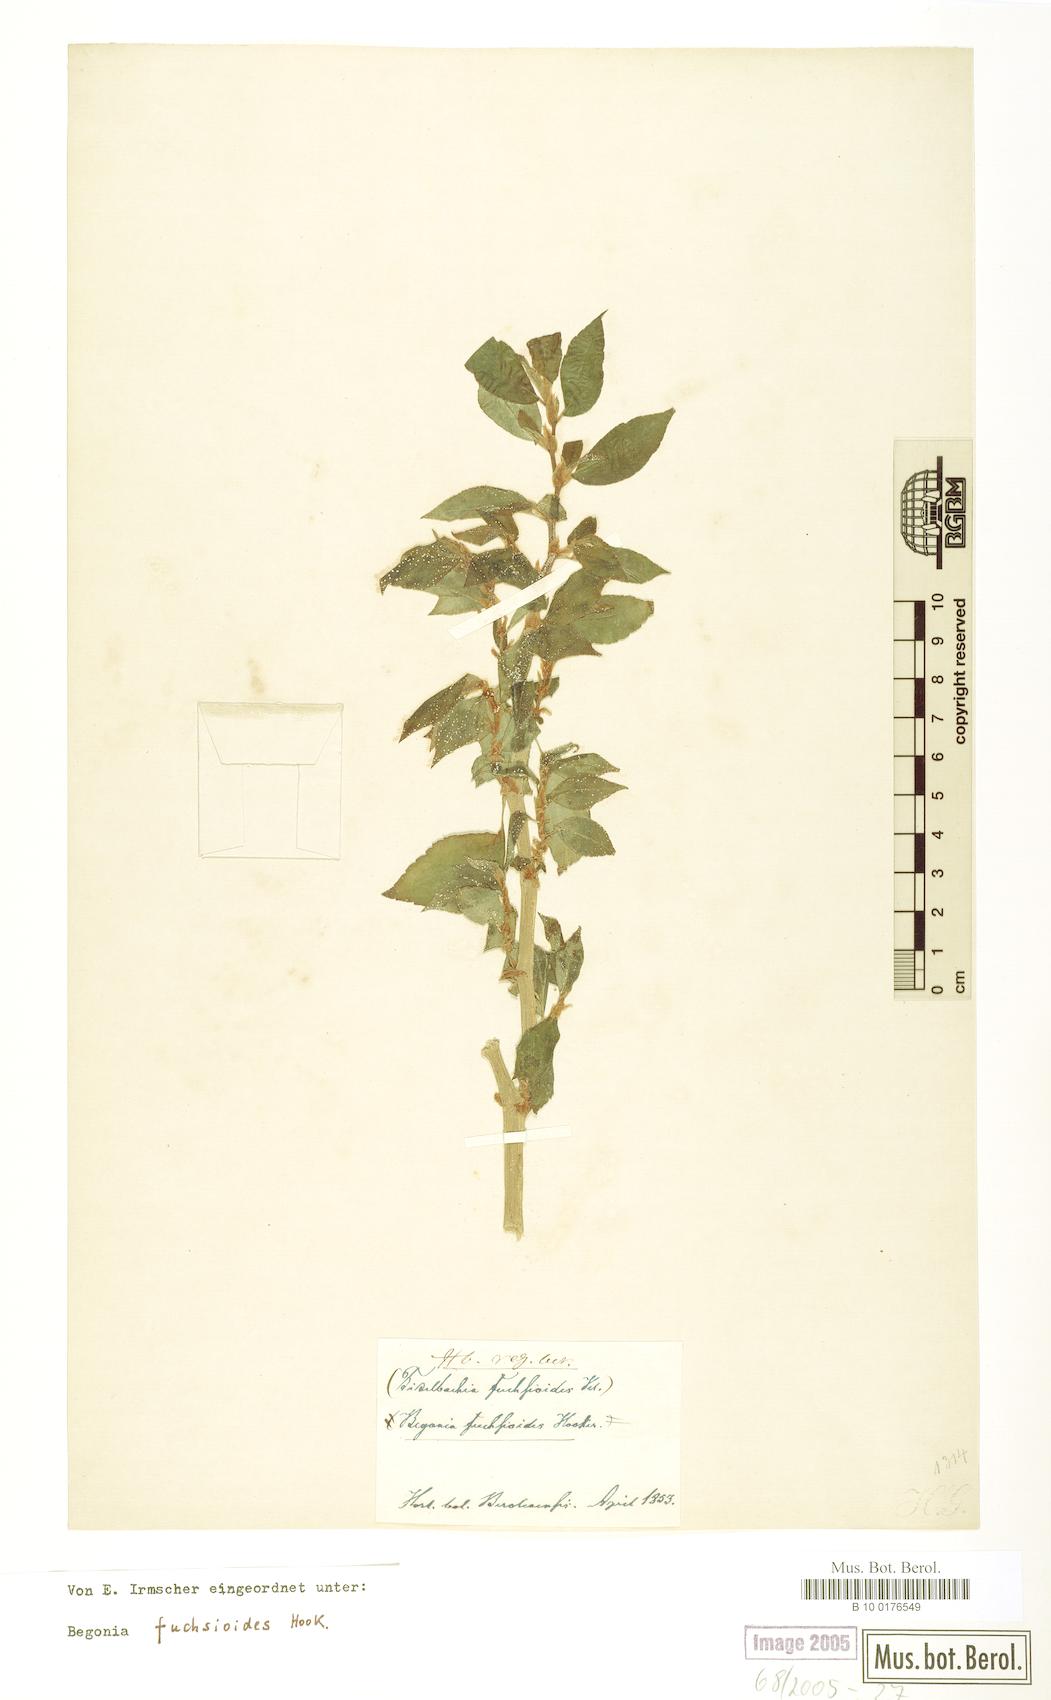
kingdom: Plantae
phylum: Tracheophyta
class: Magnoliopsida
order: Cucurbitales
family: Begoniaceae
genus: Begonia
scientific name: Begonia fuchsioides
